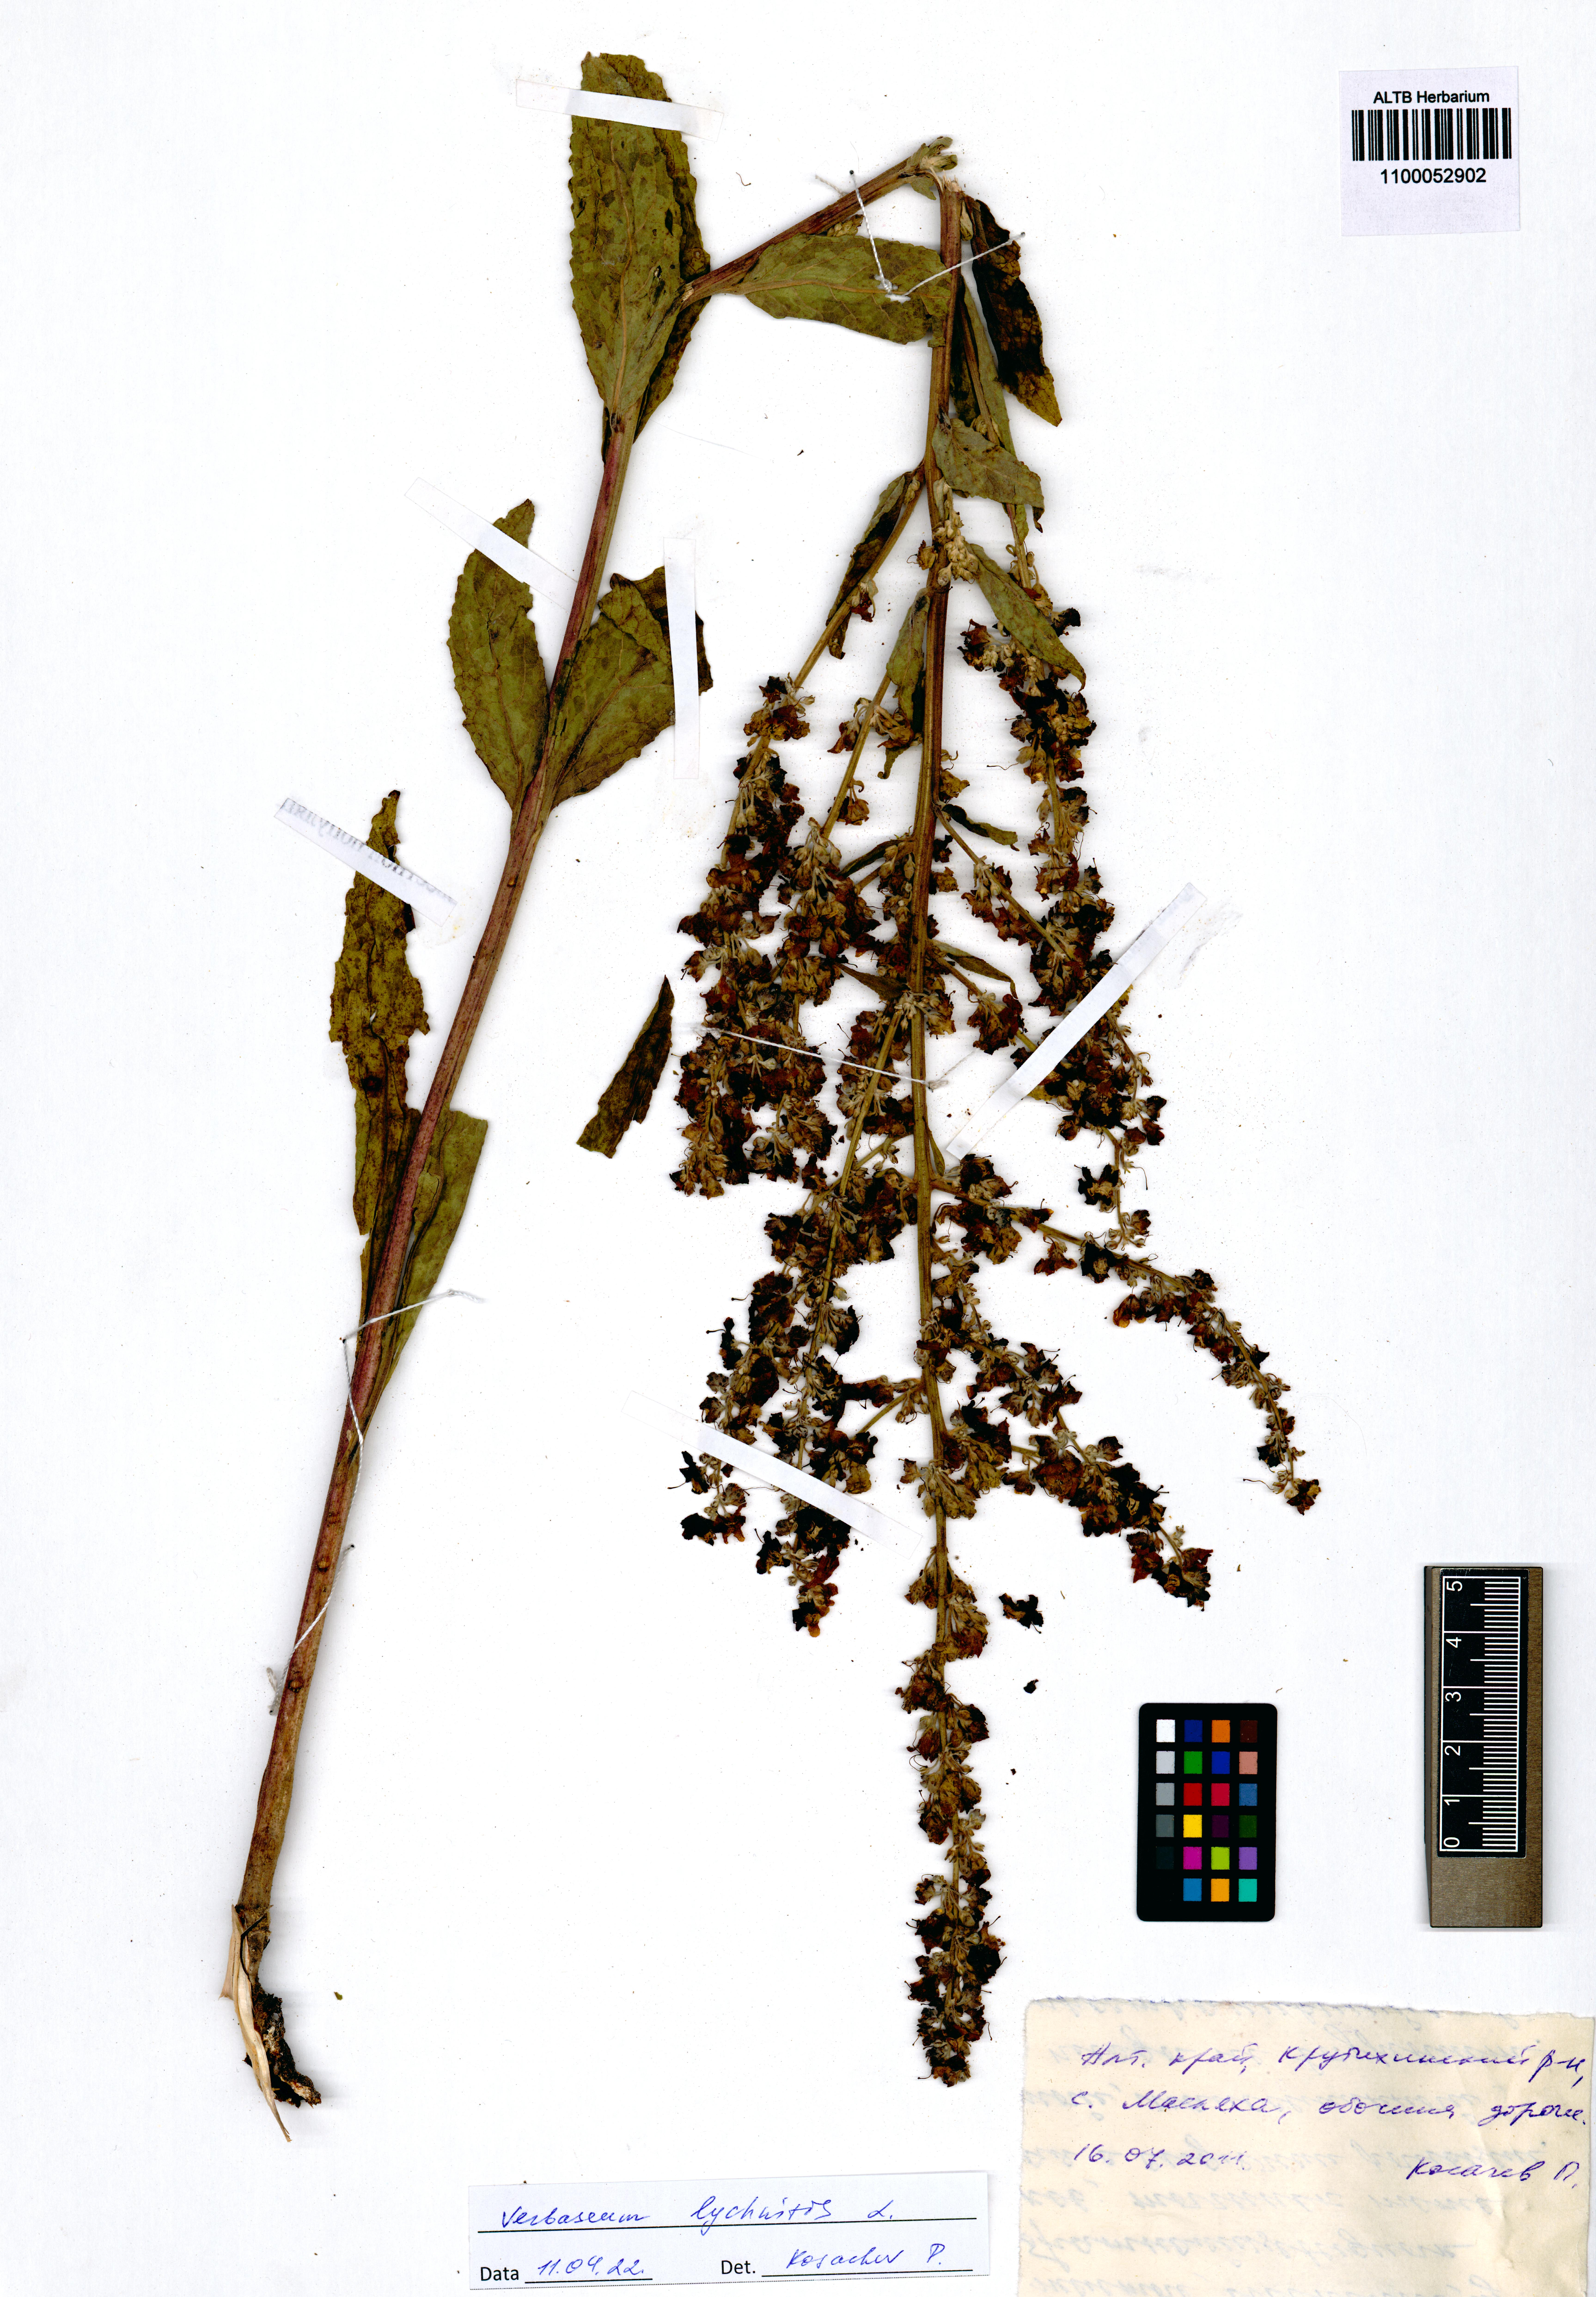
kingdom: Plantae
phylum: Tracheophyta
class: Magnoliopsida
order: Lamiales
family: Scrophulariaceae
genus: Verbascum
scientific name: Verbascum lychnitis
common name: White mullein
